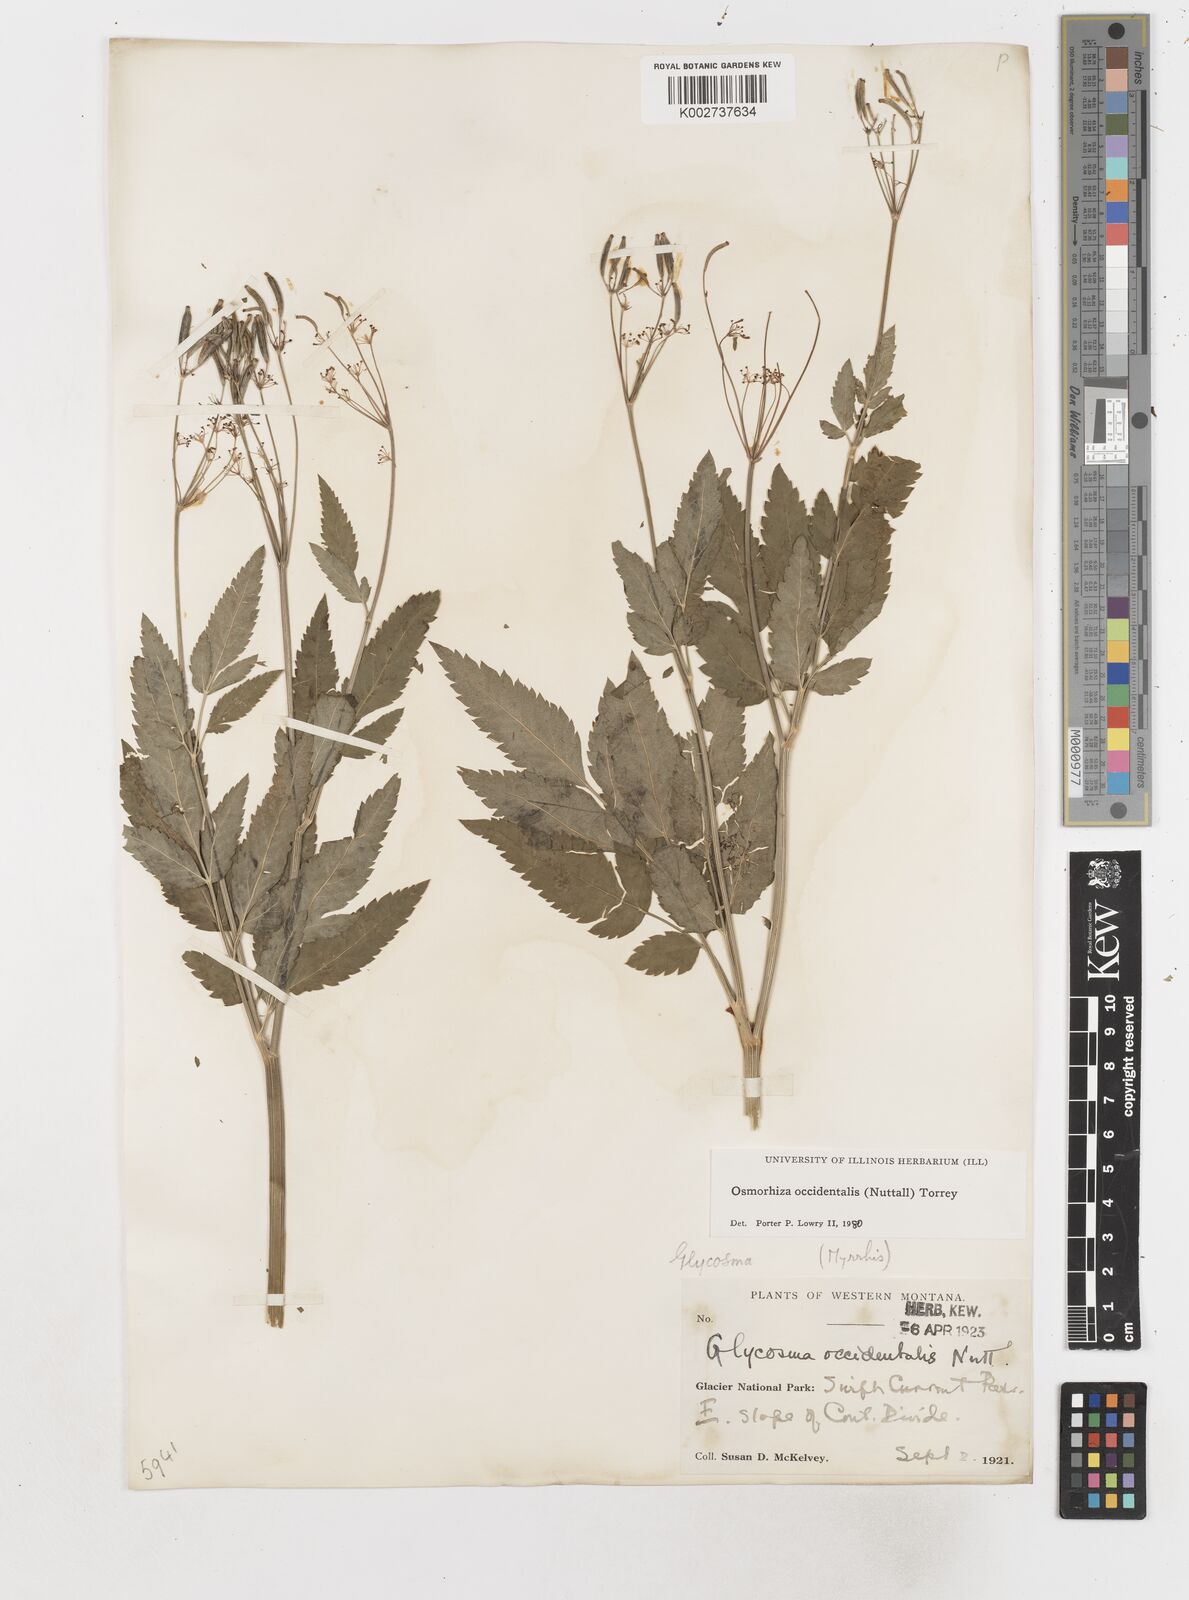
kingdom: Plantae
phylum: Tracheophyta
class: Magnoliopsida
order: Apiales
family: Apiaceae
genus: Osmorhiza
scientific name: Osmorhiza occidentalis
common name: Western sweet cicely
